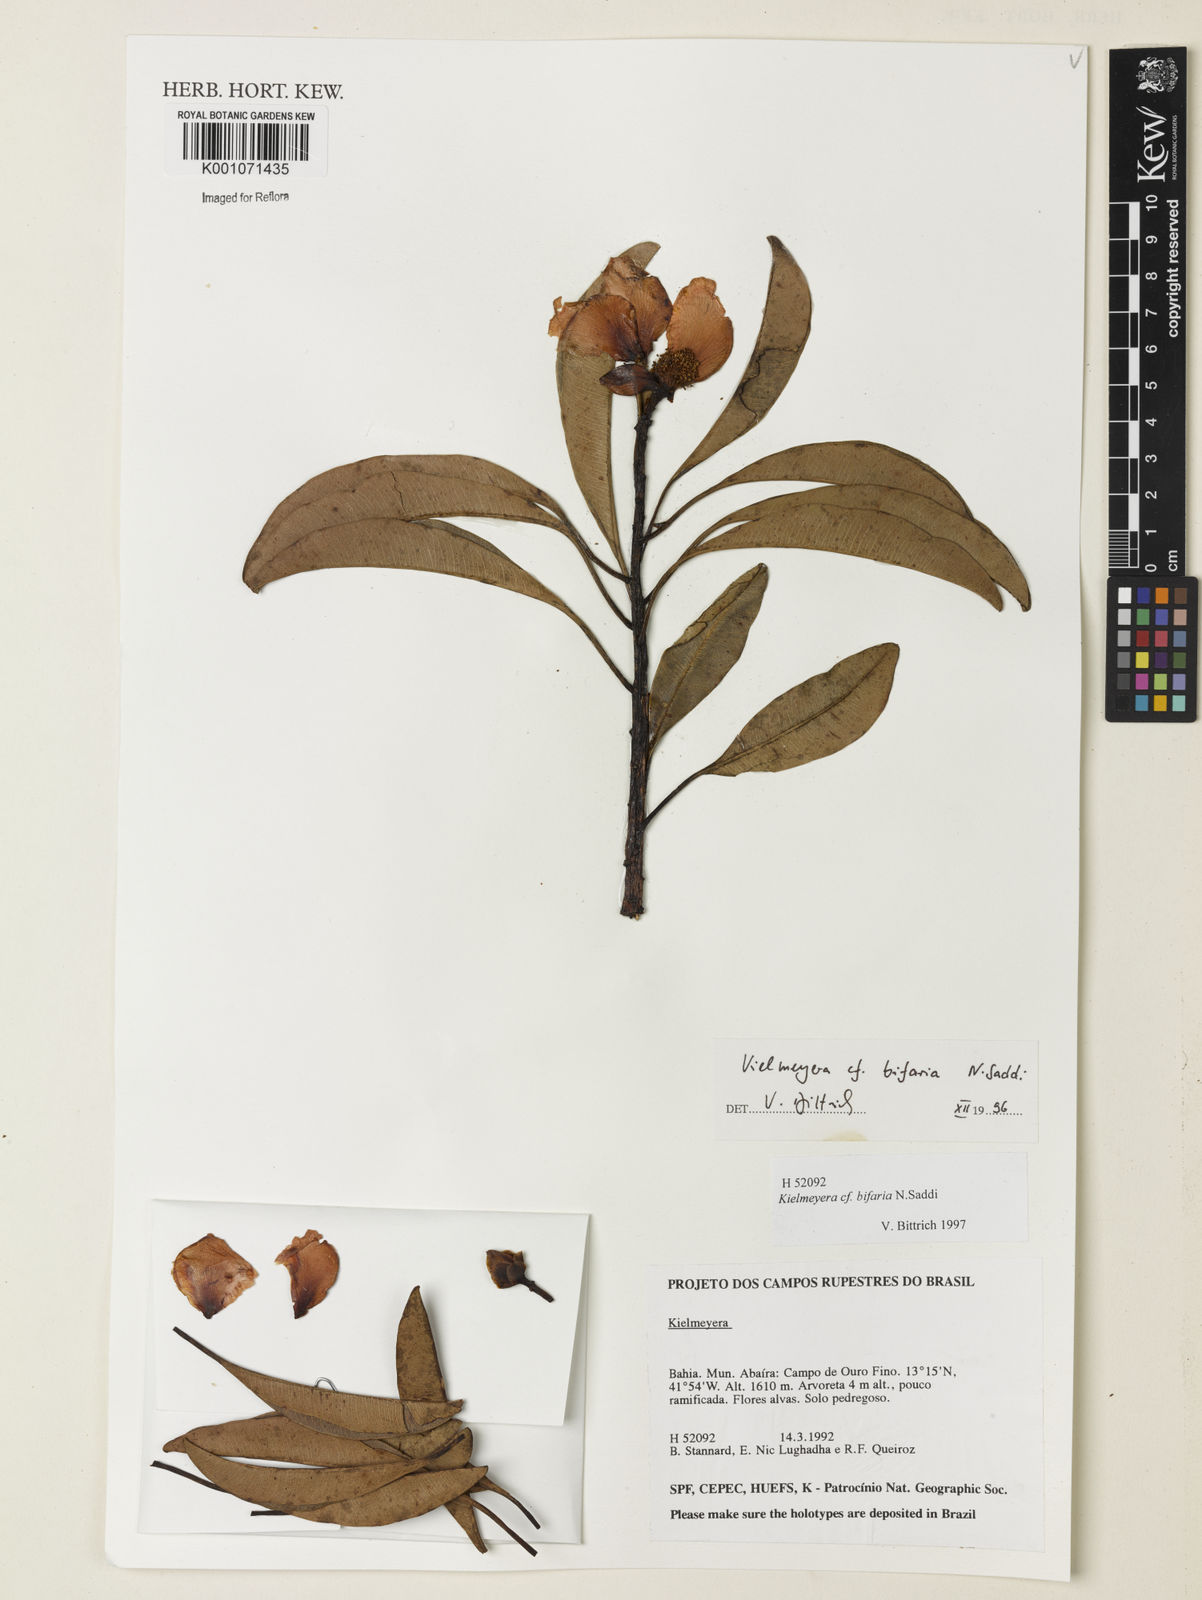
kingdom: Plantae
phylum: Tracheophyta
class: Magnoliopsida
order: Malpighiales
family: Calophyllaceae
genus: Kielmeyera
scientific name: Kielmeyera bifaria
